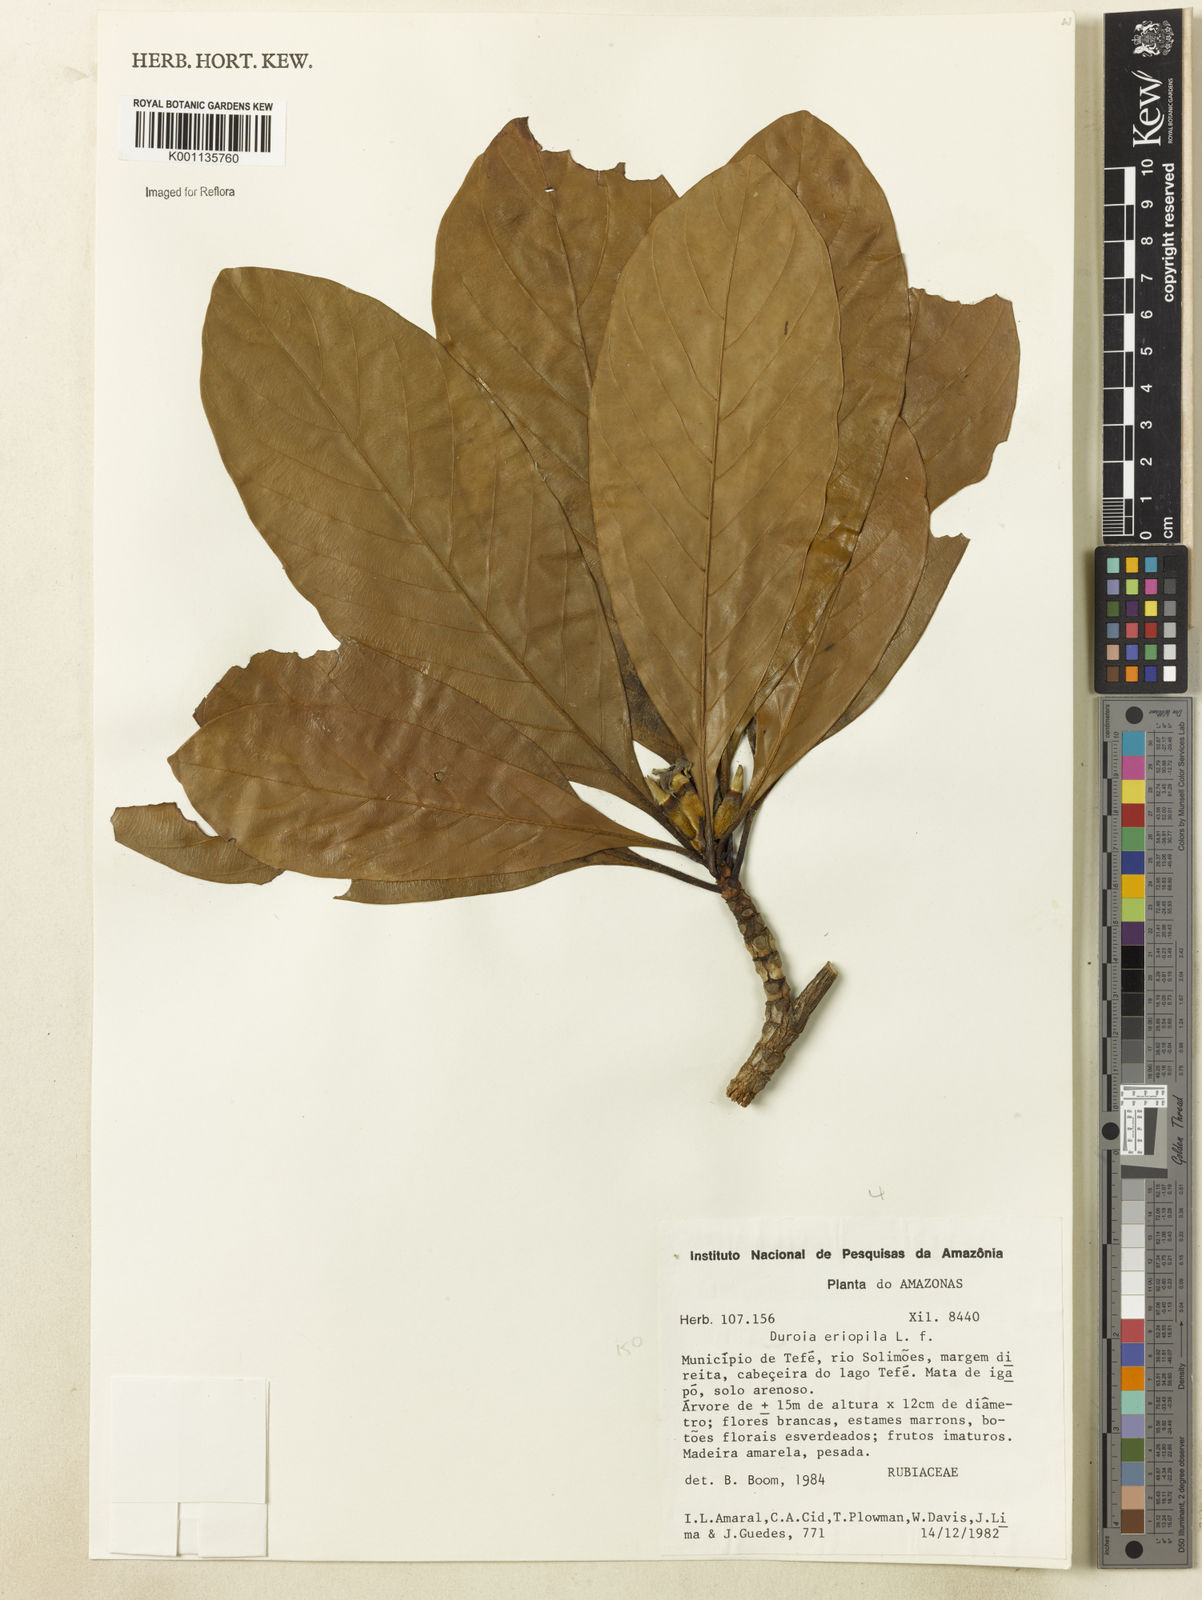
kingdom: Plantae
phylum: Tracheophyta
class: Magnoliopsida
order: Gentianales
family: Rubiaceae
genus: Duroia
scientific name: Duroia eriopila
